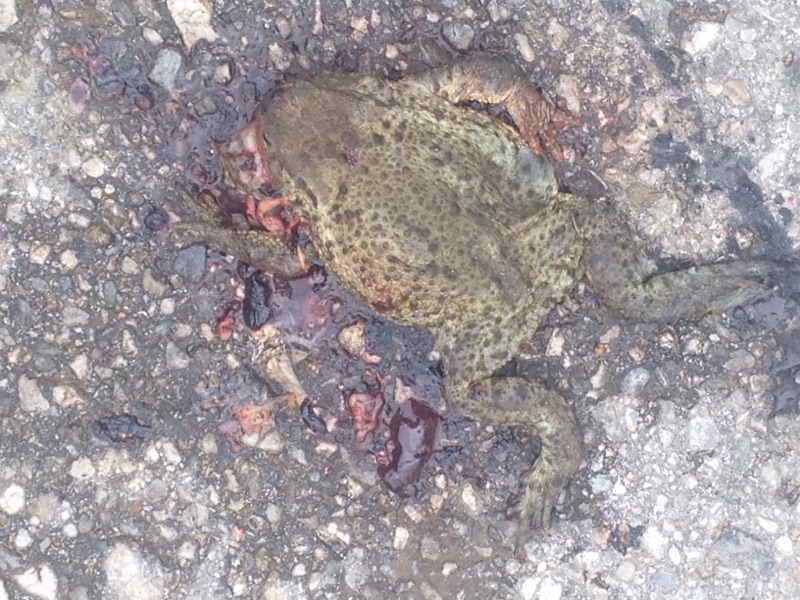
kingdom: Animalia
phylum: Chordata
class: Amphibia
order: Anura
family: Bufonidae
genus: Bufo
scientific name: Bufo bufo
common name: Common toad
